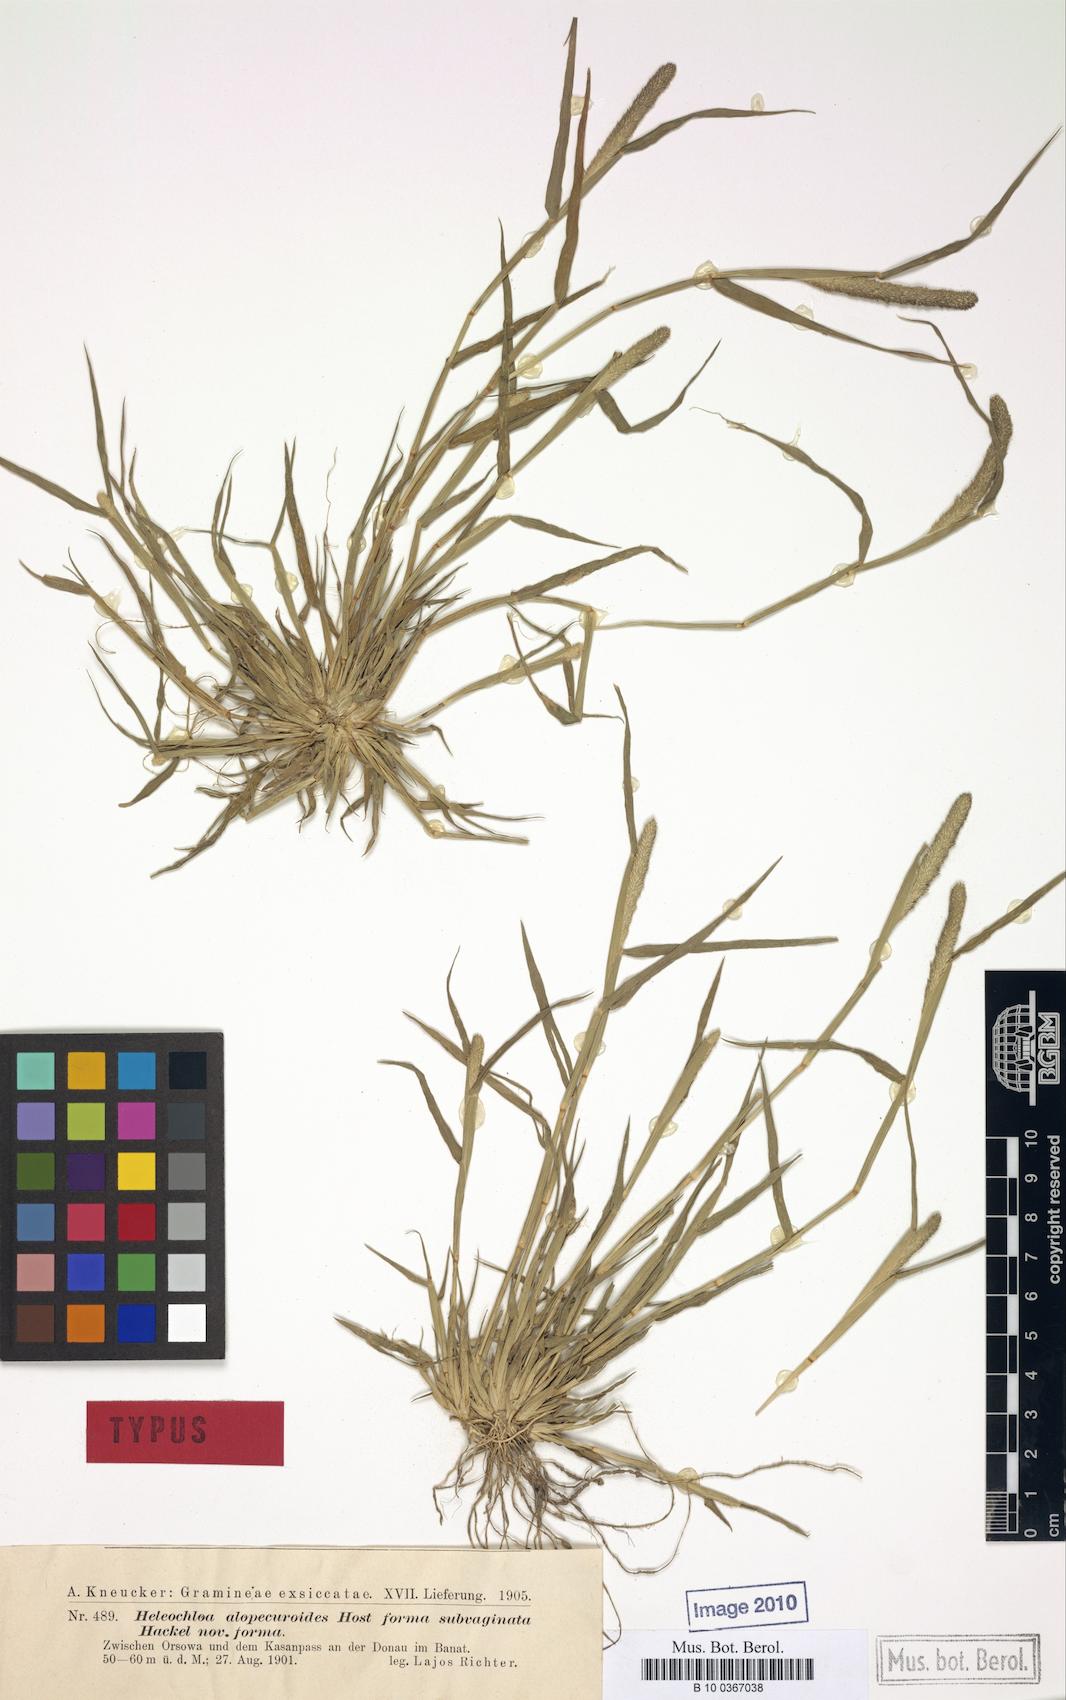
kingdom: Plantae
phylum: Tracheophyta
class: Liliopsida
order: Poales
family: Poaceae
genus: Sporobolus
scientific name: Sporobolus alopecuroides
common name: Foxtail pricklegrass
